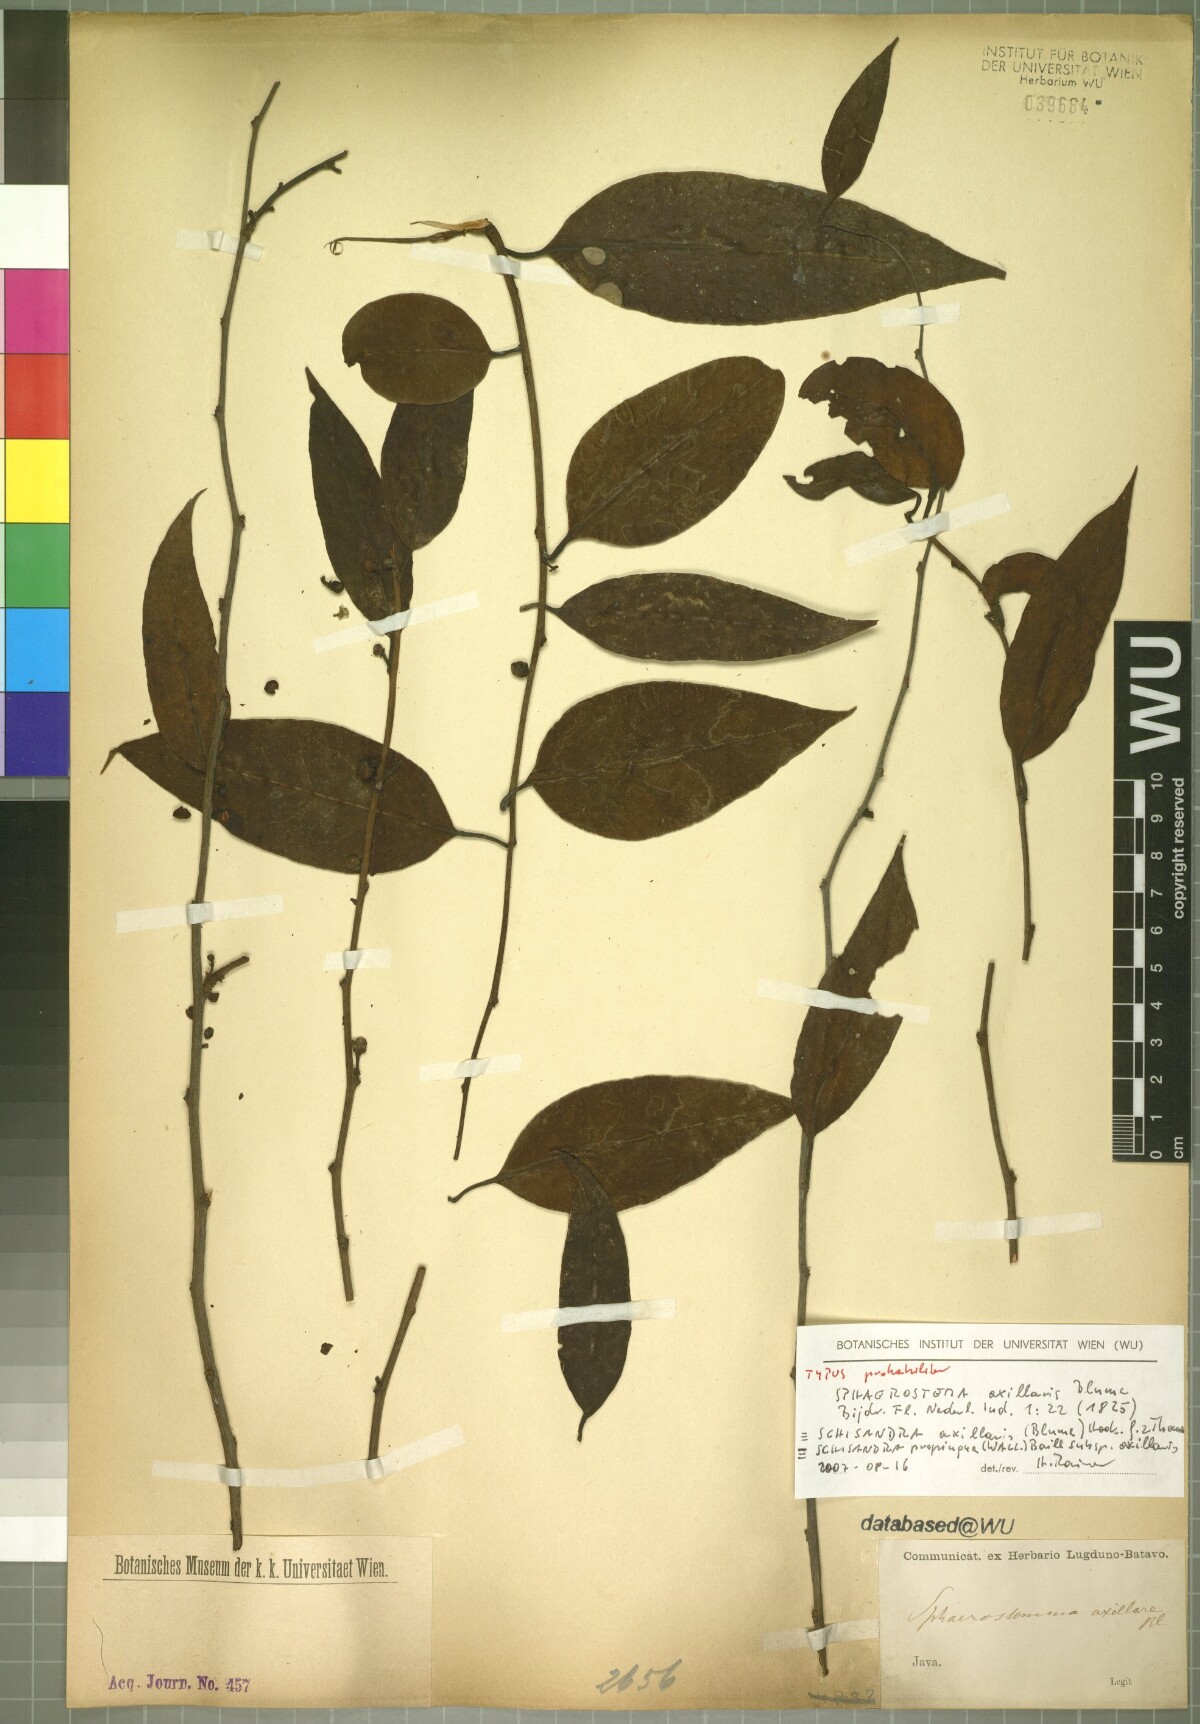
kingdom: Plantae
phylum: Tracheophyta
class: Magnoliopsida
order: Austrobaileyales
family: Schisandraceae
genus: Schisandra
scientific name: Schisandra propinqua
